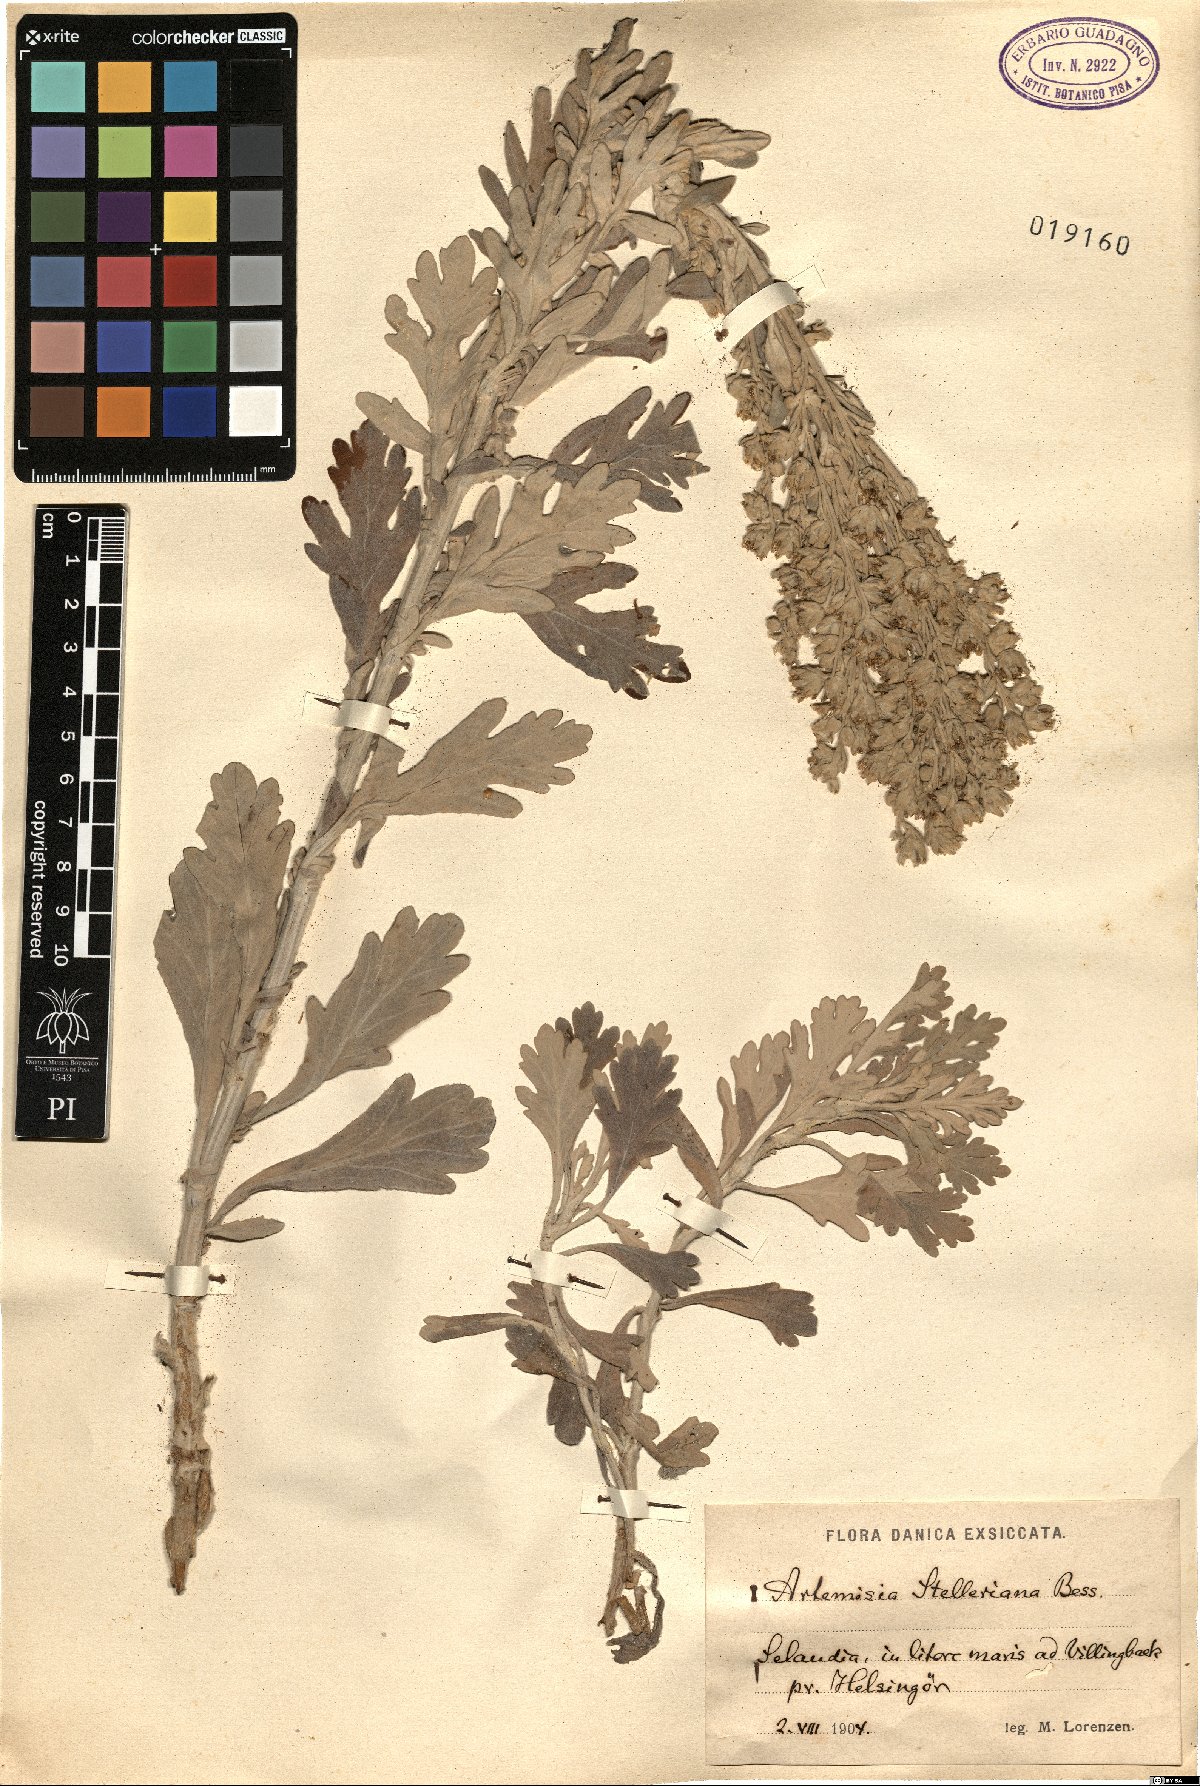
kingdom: Plantae
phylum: Tracheophyta
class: Magnoliopsida
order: Asterales
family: Asteraceae
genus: Artemisia
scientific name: Artemisia stelleriana
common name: Beach wormwood
